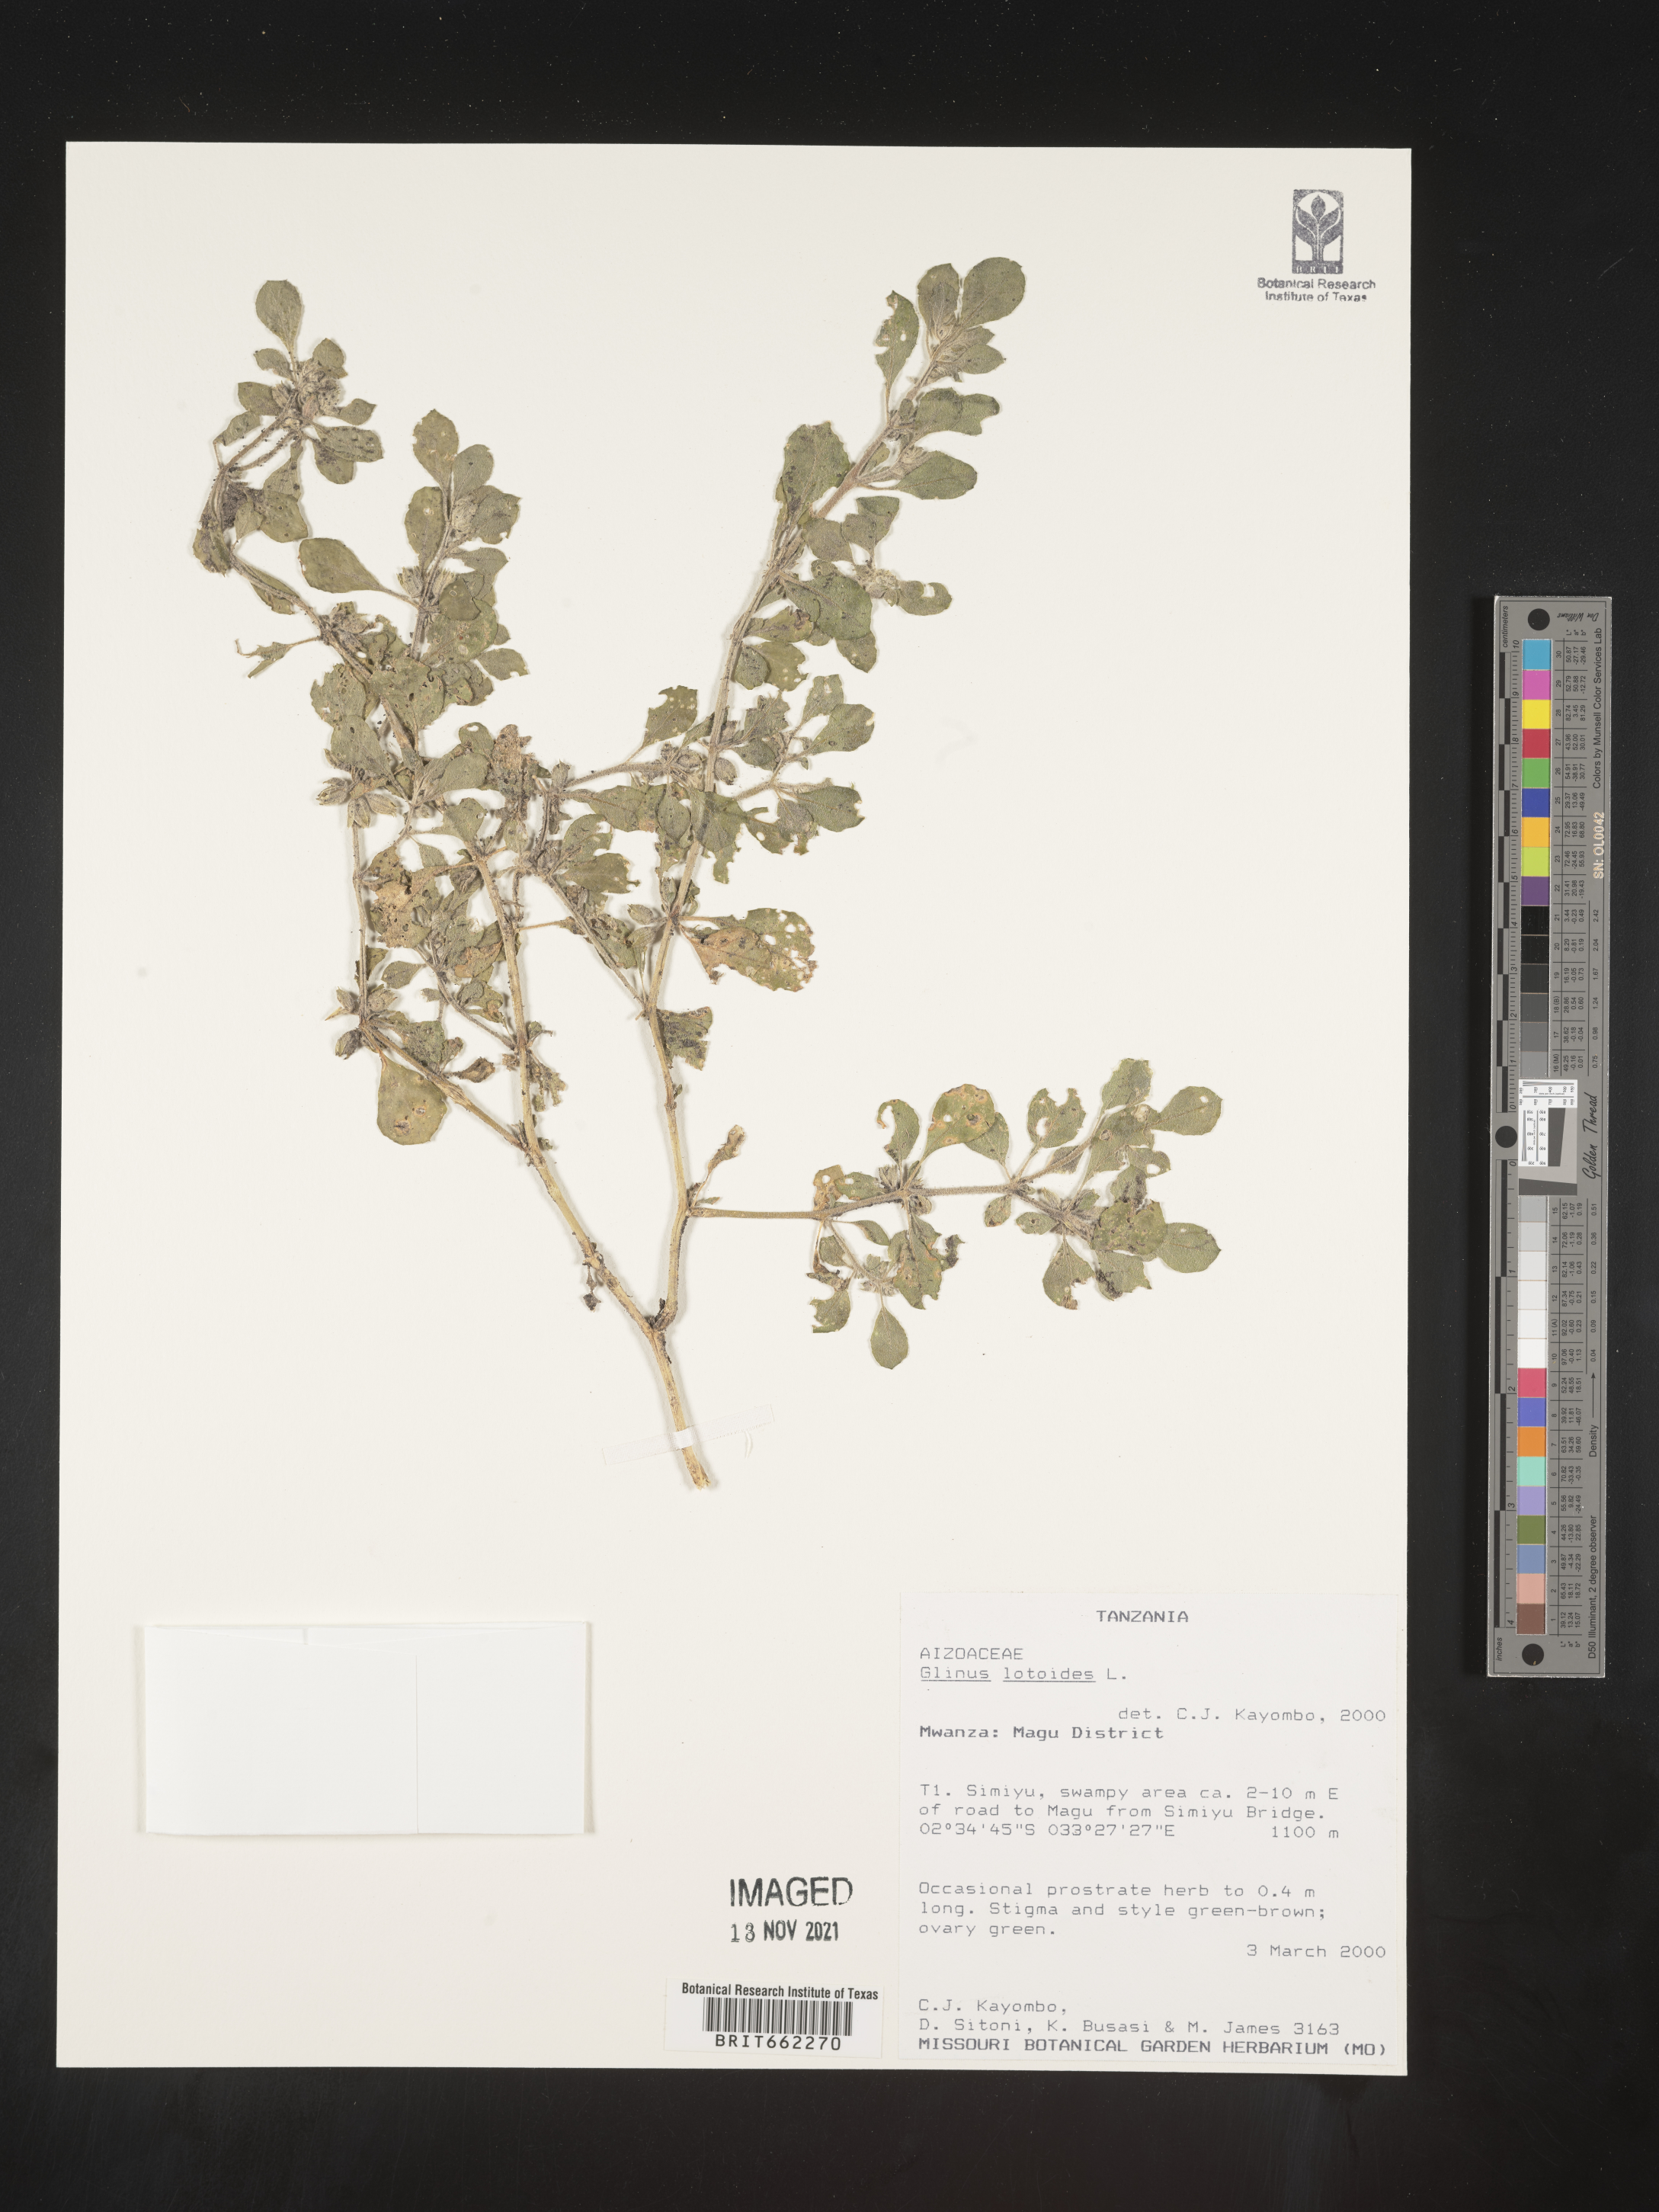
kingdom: Plantae
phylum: Tracheophyta
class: Magnoliopsida
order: Caryophyllales
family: Molluginaceae
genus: Glinus
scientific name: Glinus
